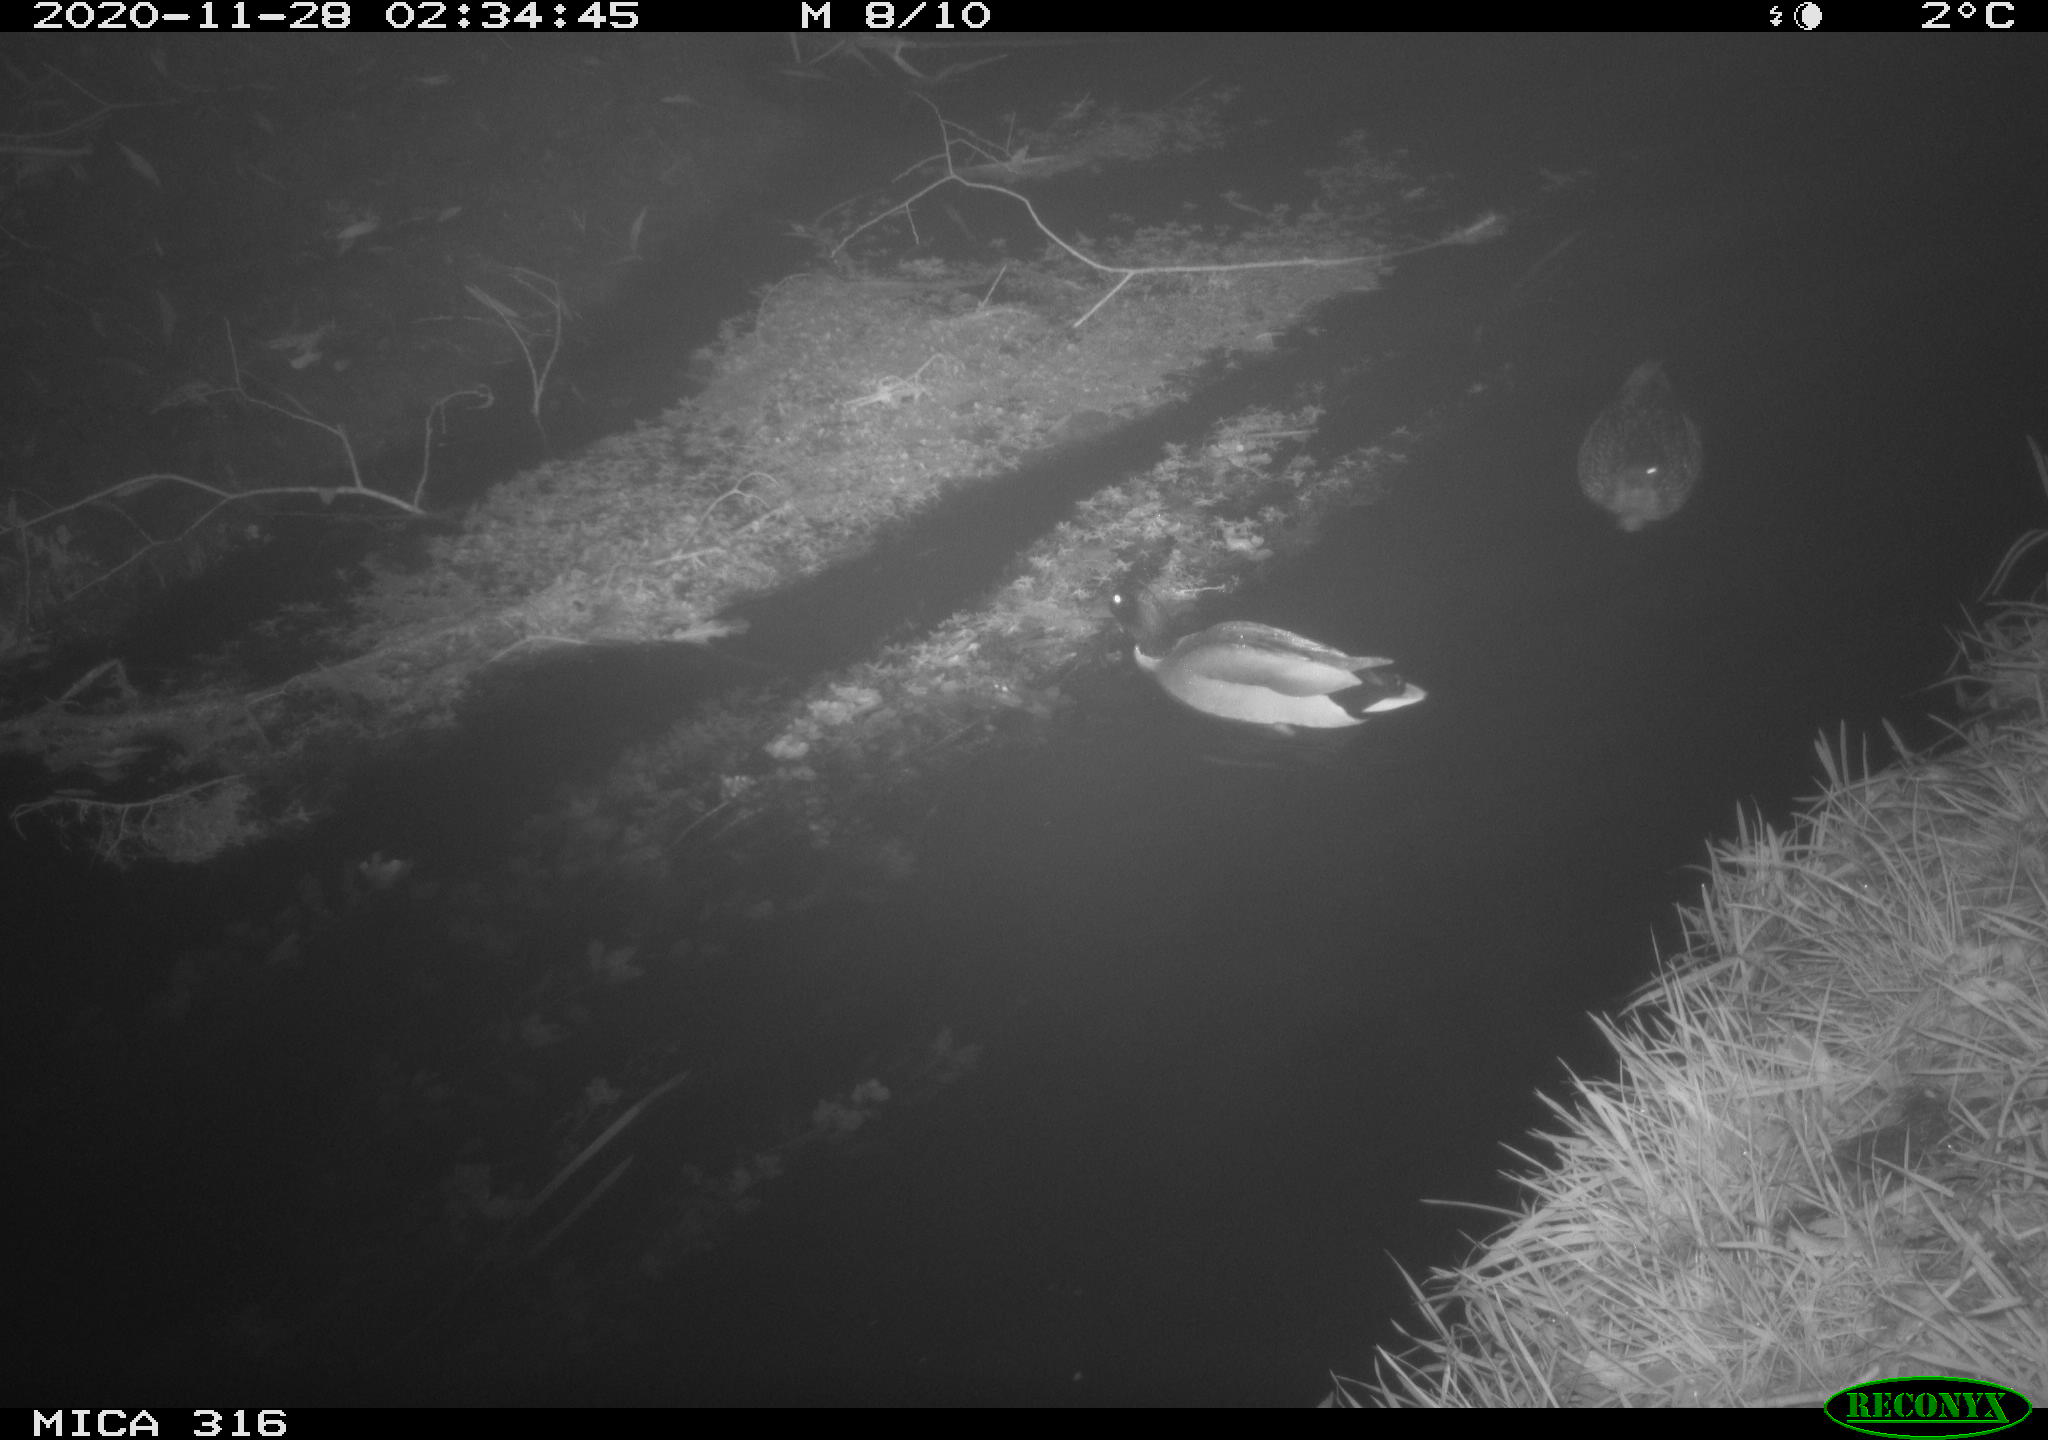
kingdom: Animalia
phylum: Chordata
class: Aves
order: Anseriformes
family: Anatidae
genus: Anas
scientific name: Anas platyrhynchos
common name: Mallard
